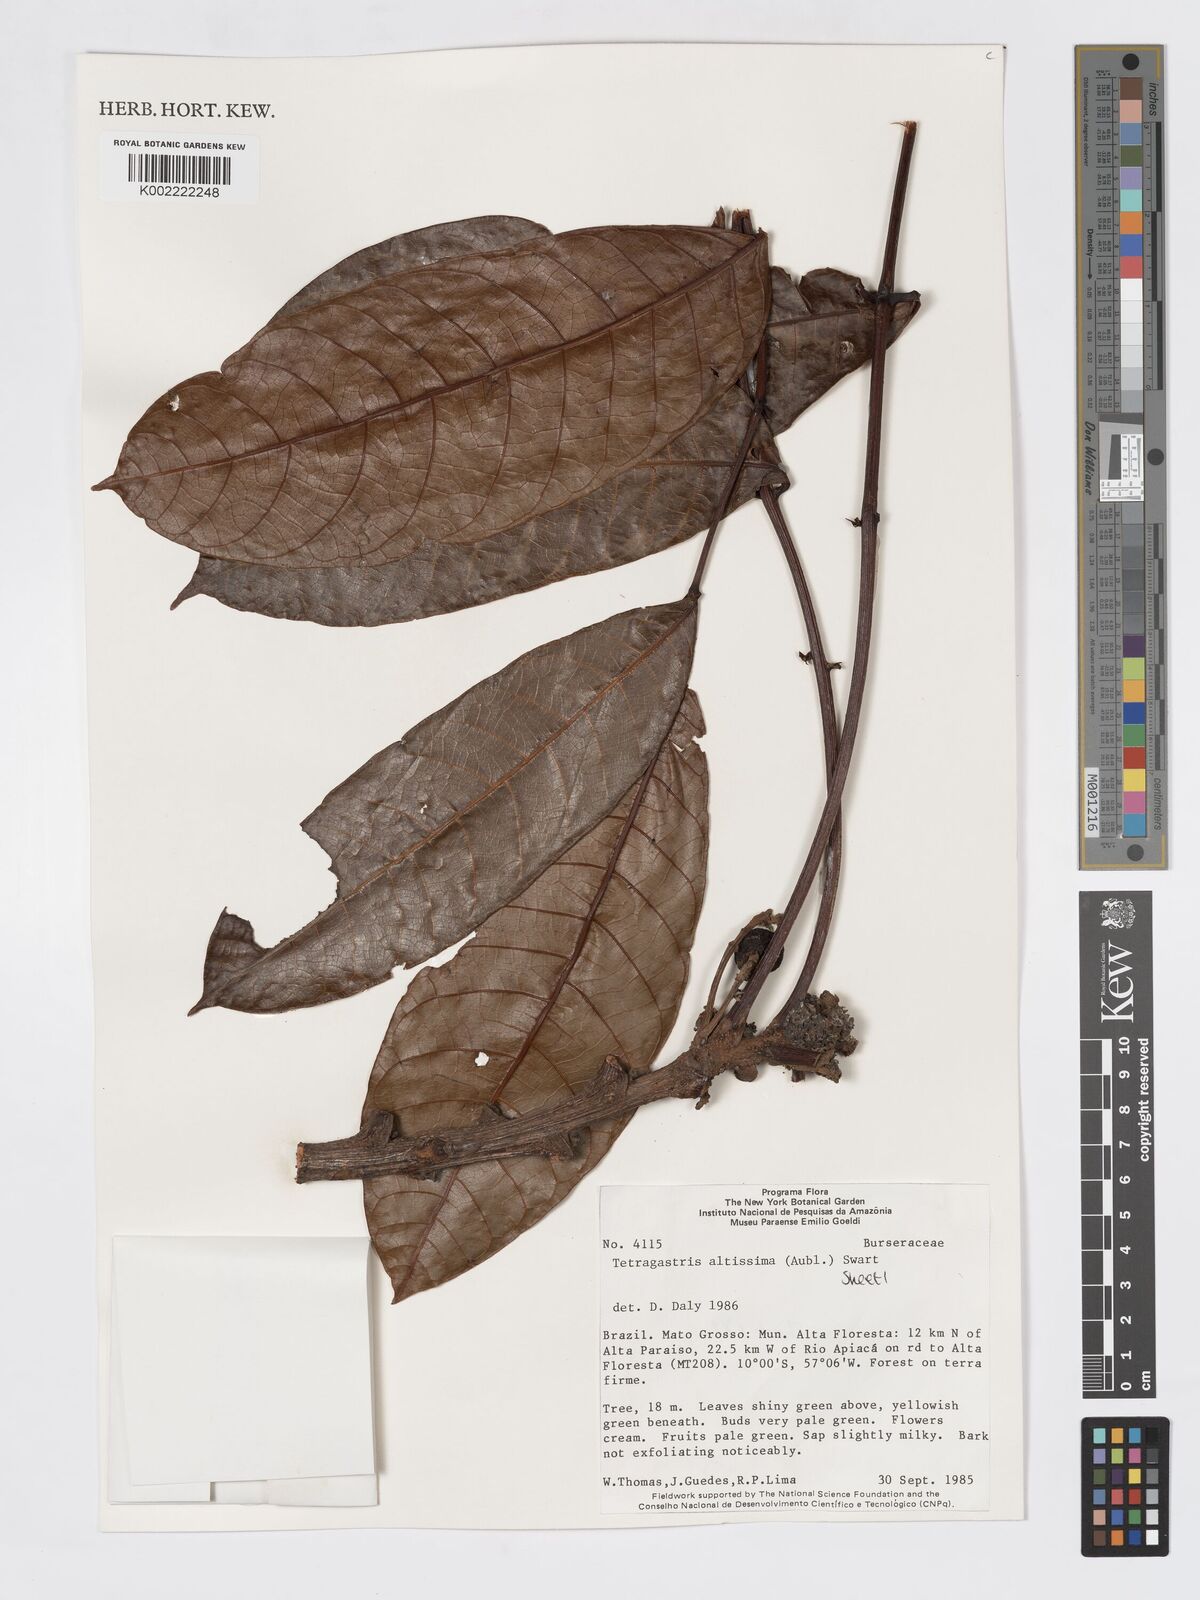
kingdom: Plantae
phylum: Tracheophyta
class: Magnoliopsida
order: Sapindales
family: Burseraceae
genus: Tetragastris
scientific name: Tetragastris altissima
